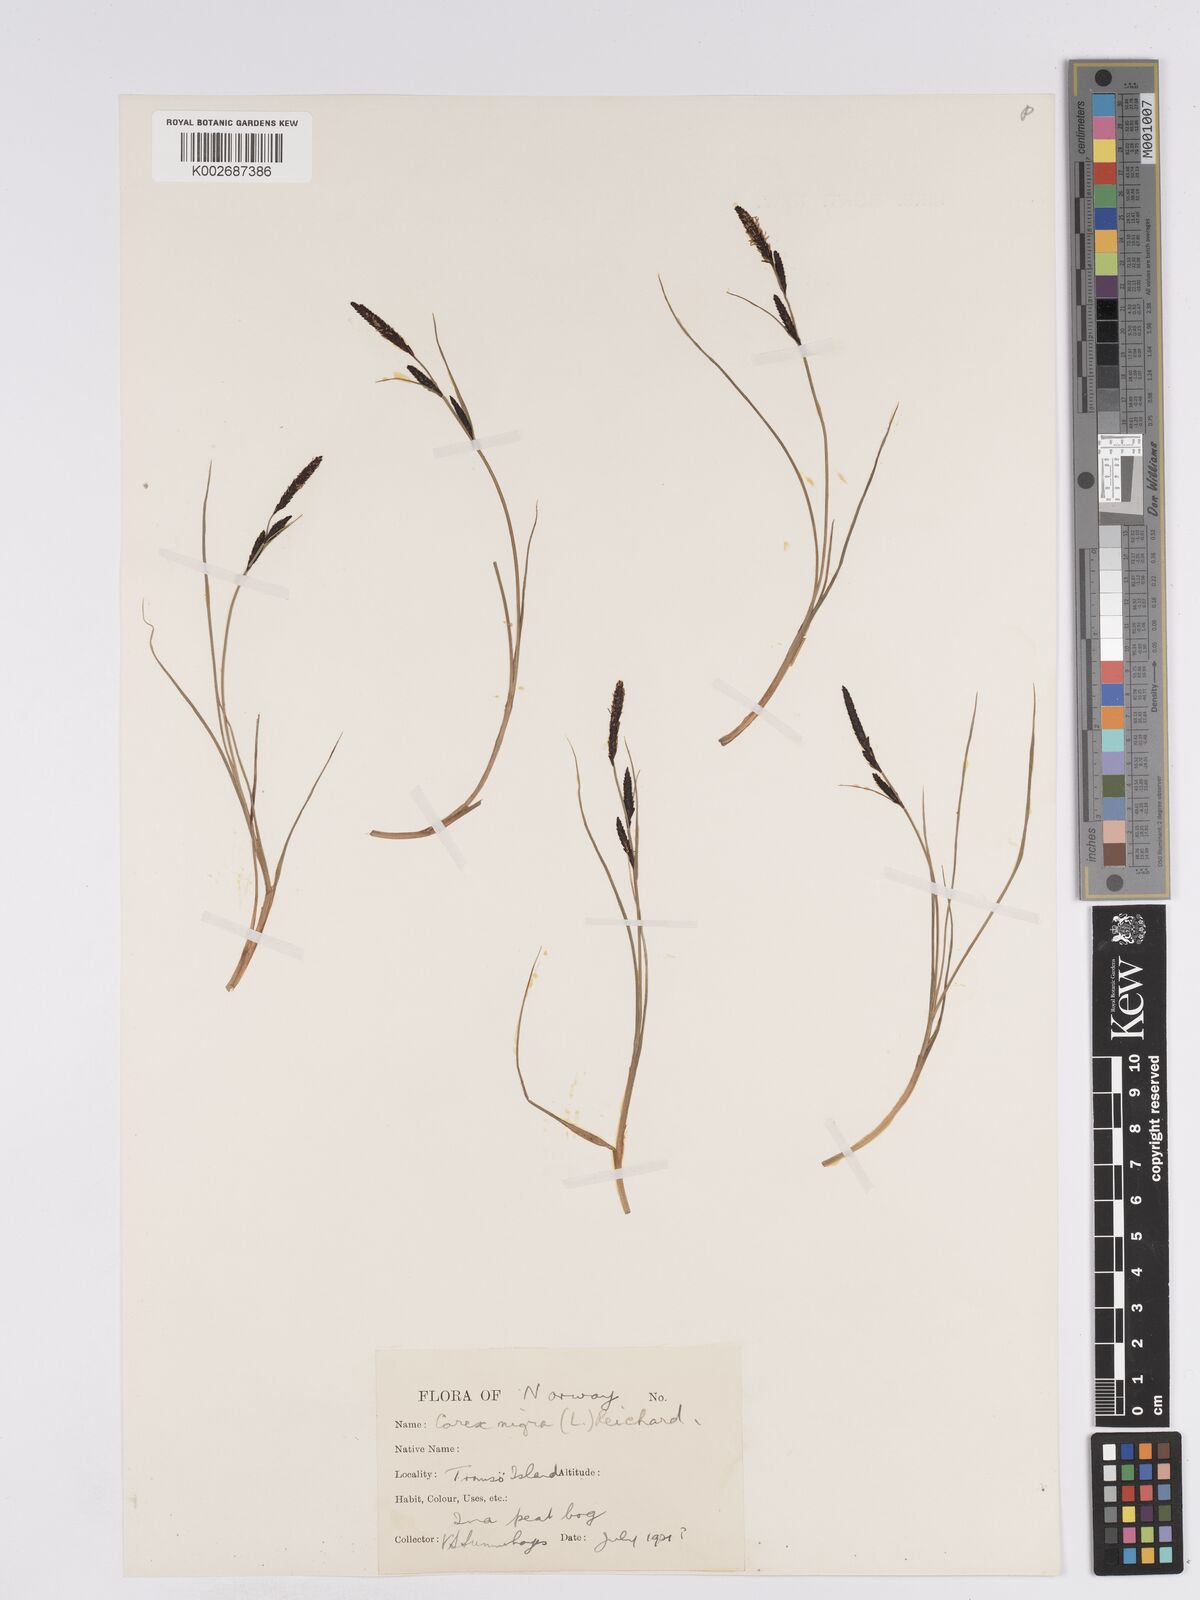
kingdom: Plantae
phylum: Tracheophyta
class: Liliopsida
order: Poales
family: Cyperaceae
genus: Carex
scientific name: Carex nigra
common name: Common sedge
